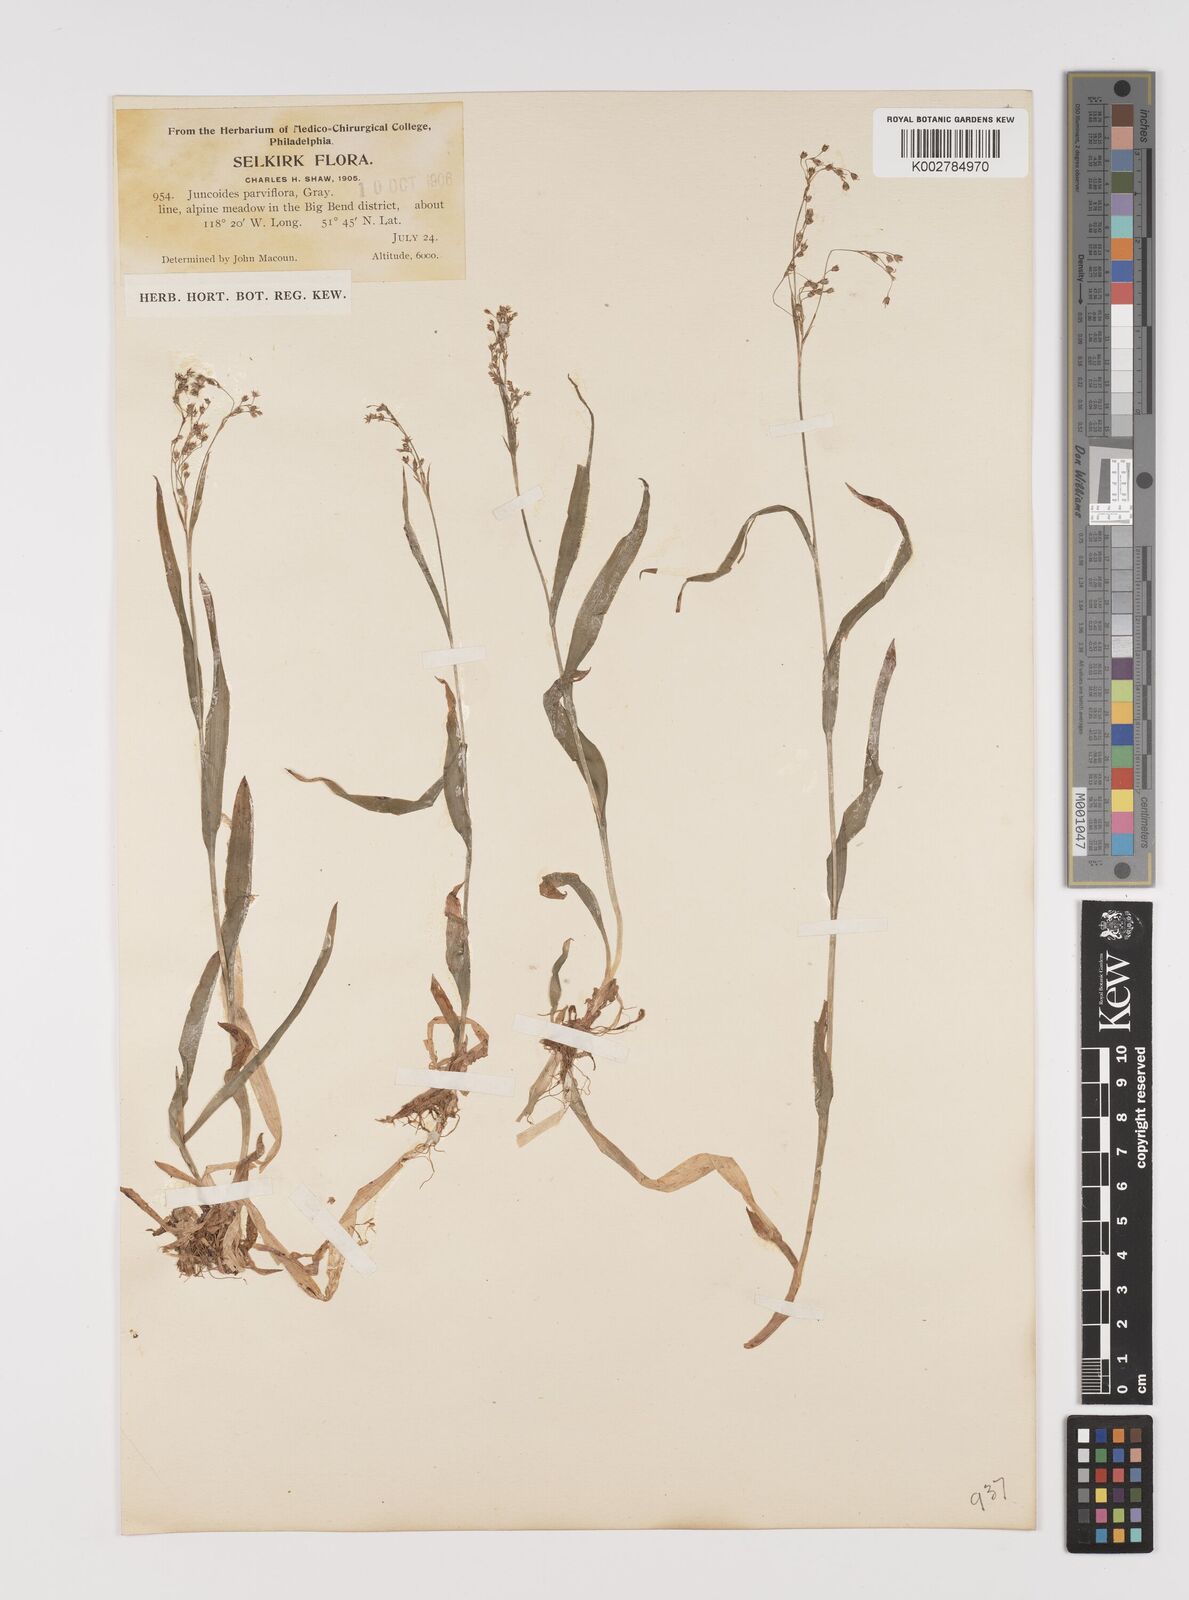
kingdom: Plantae
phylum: Tracheophyta
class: Liliopsida
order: Poales
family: Juncaceae
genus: Luzula
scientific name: Luzula parviflora
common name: Millet woodrush
